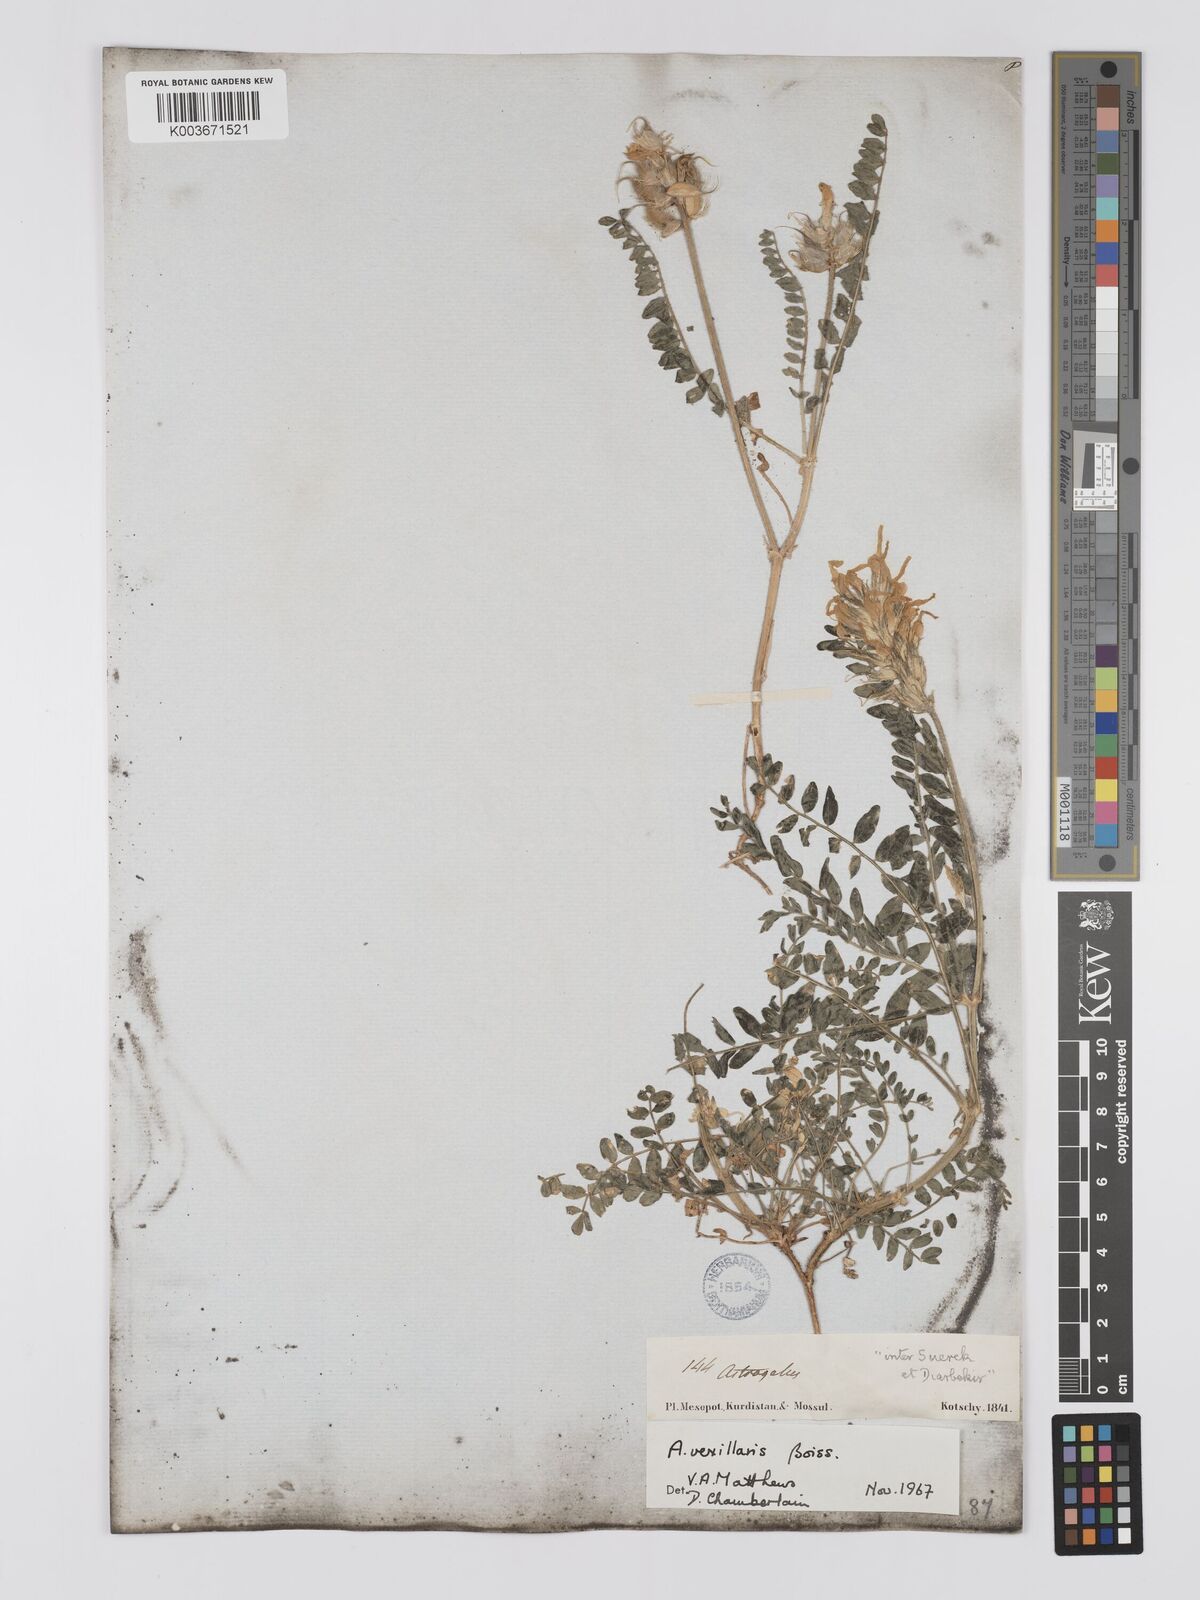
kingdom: Plantae
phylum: Tracheophyta
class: Magnoliopsida
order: Fabales
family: Fabaceae
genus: Astragalus
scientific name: Astragalus vexillaris
